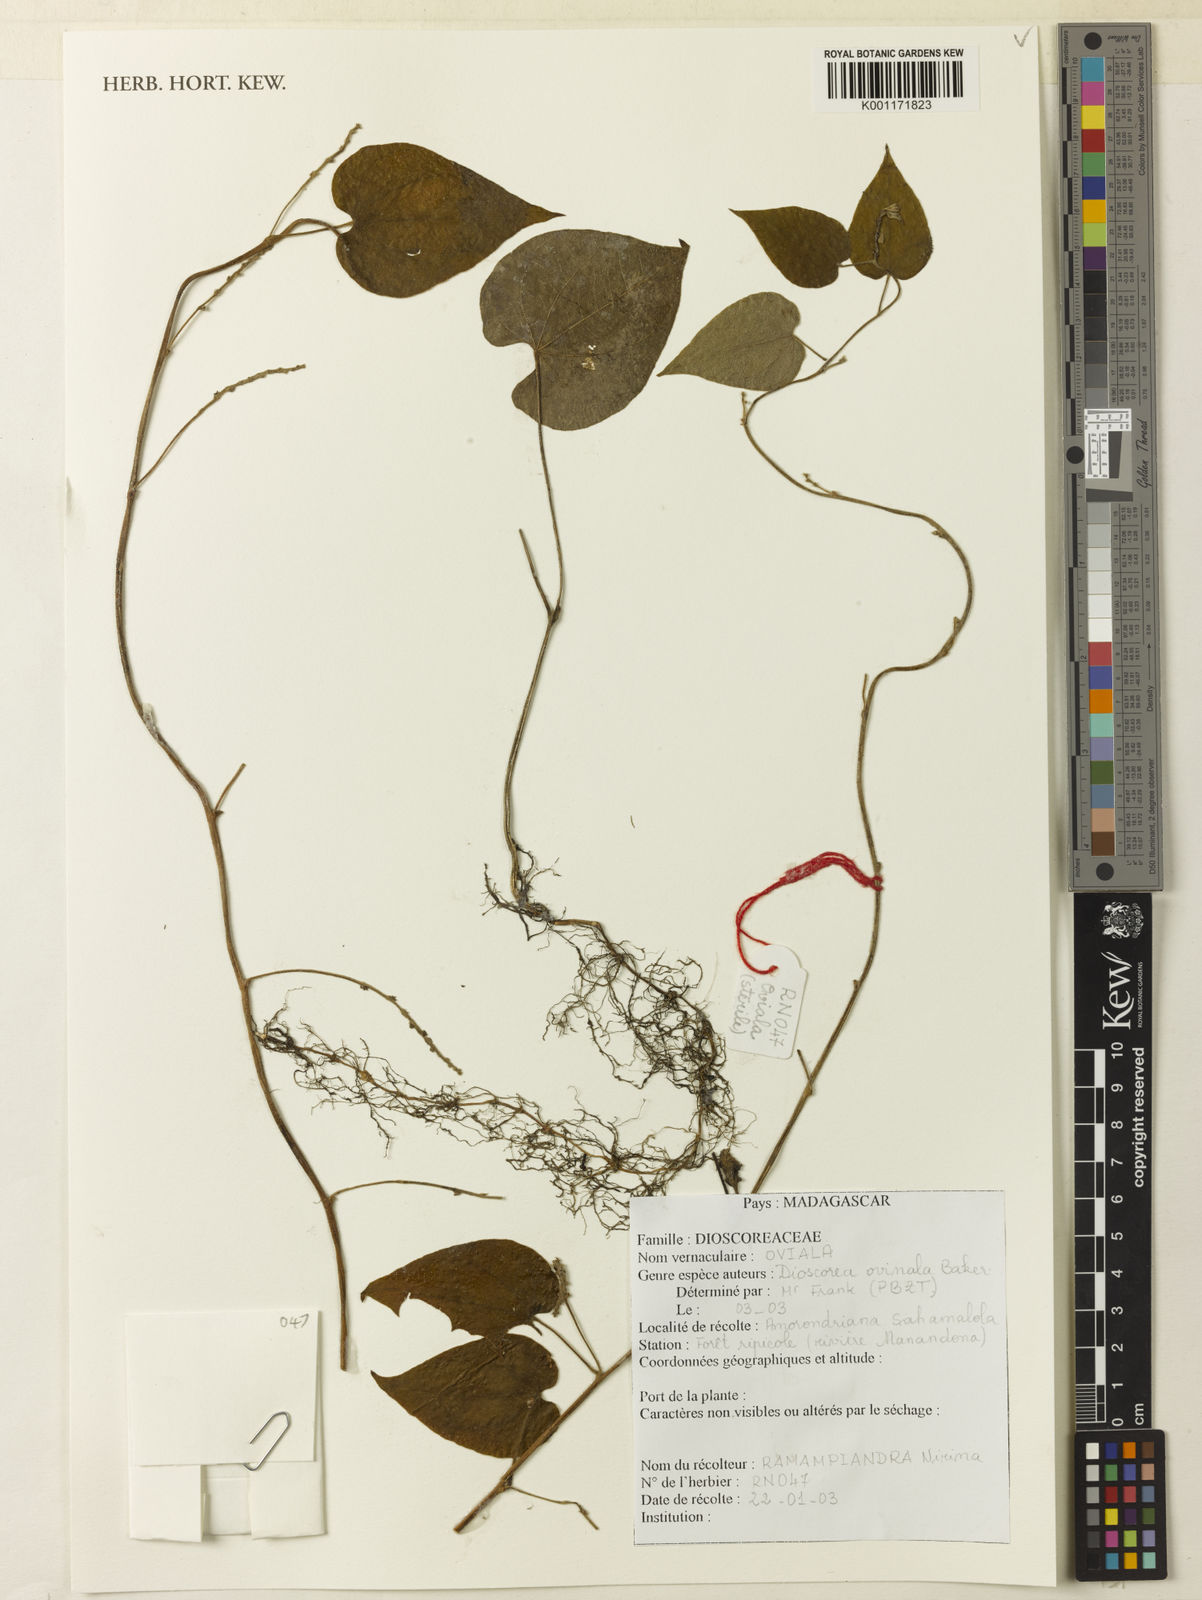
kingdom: Plantae
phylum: Tracheophyta
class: Liliopsida
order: Dioscoreales
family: Dioscoreaceae
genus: Dioscorea
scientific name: Dioscorea ovinala
